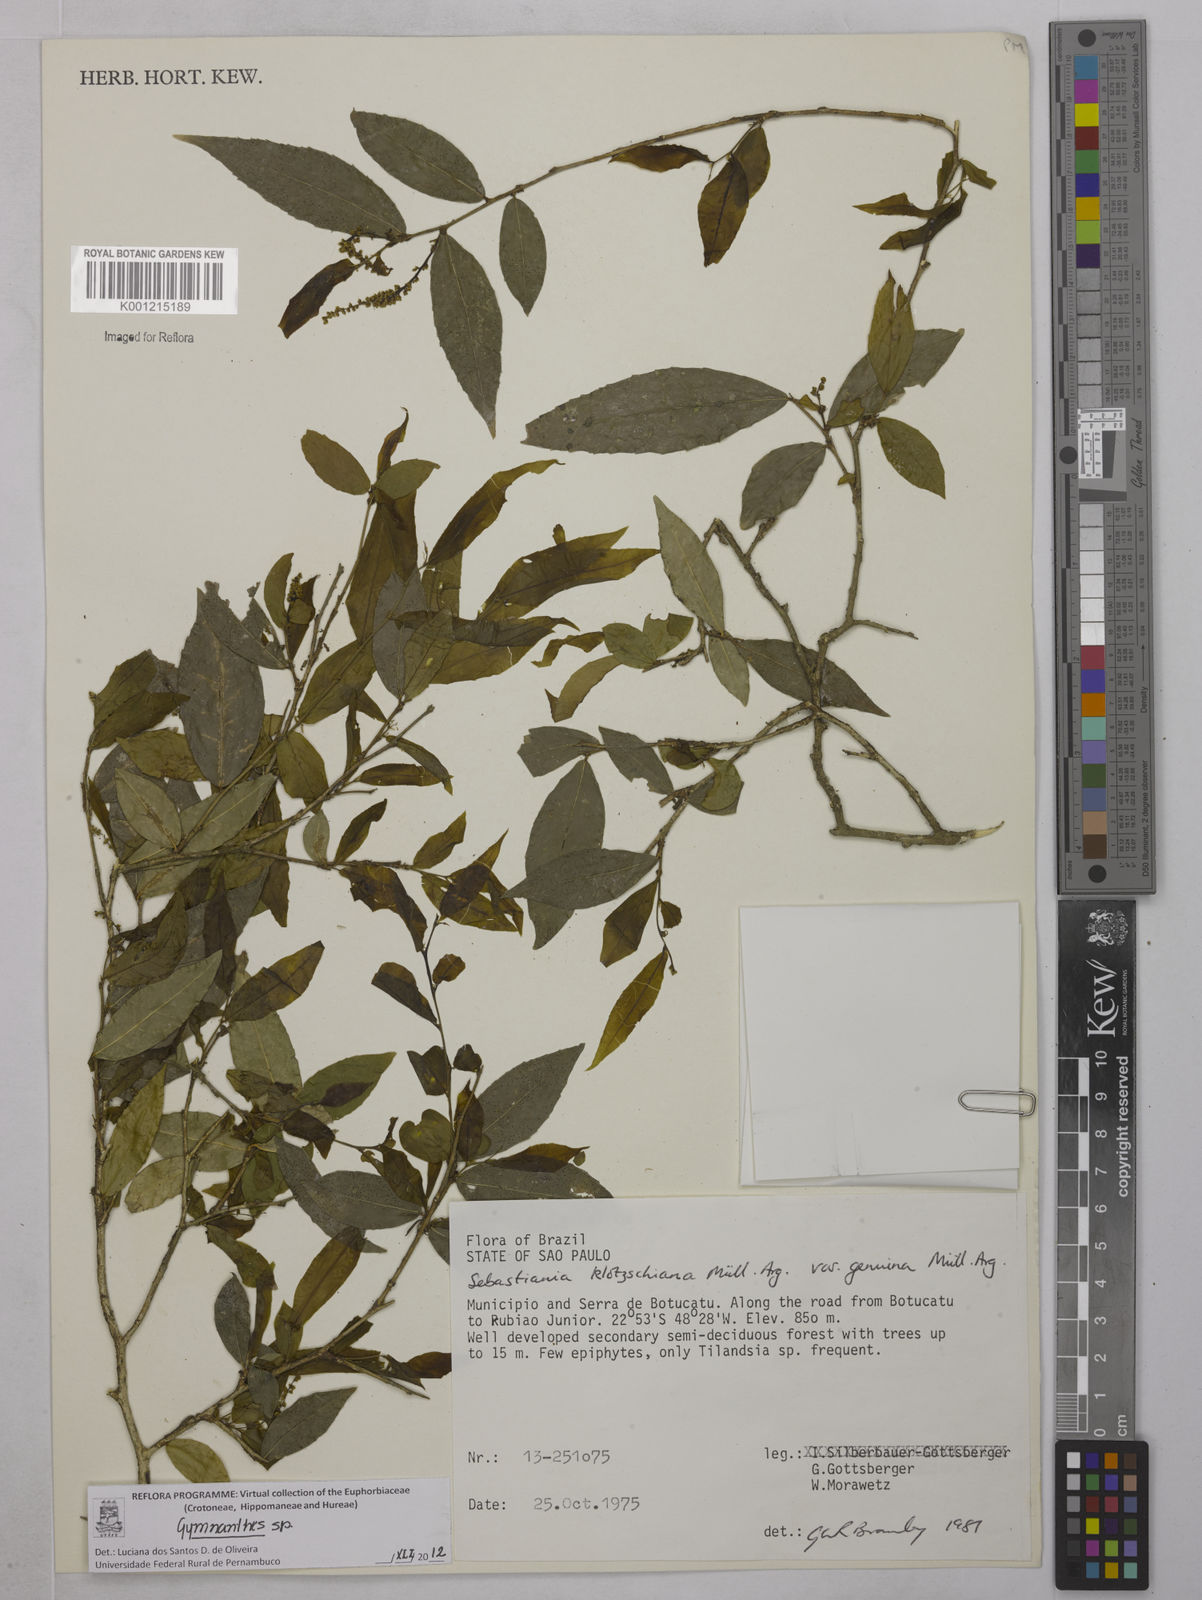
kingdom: Plantae
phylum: Tracheophyta
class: Magnoliopsida
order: Malpighiales
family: Euphorbiaceae
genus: Gymnanthes
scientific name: Gymnanthes
